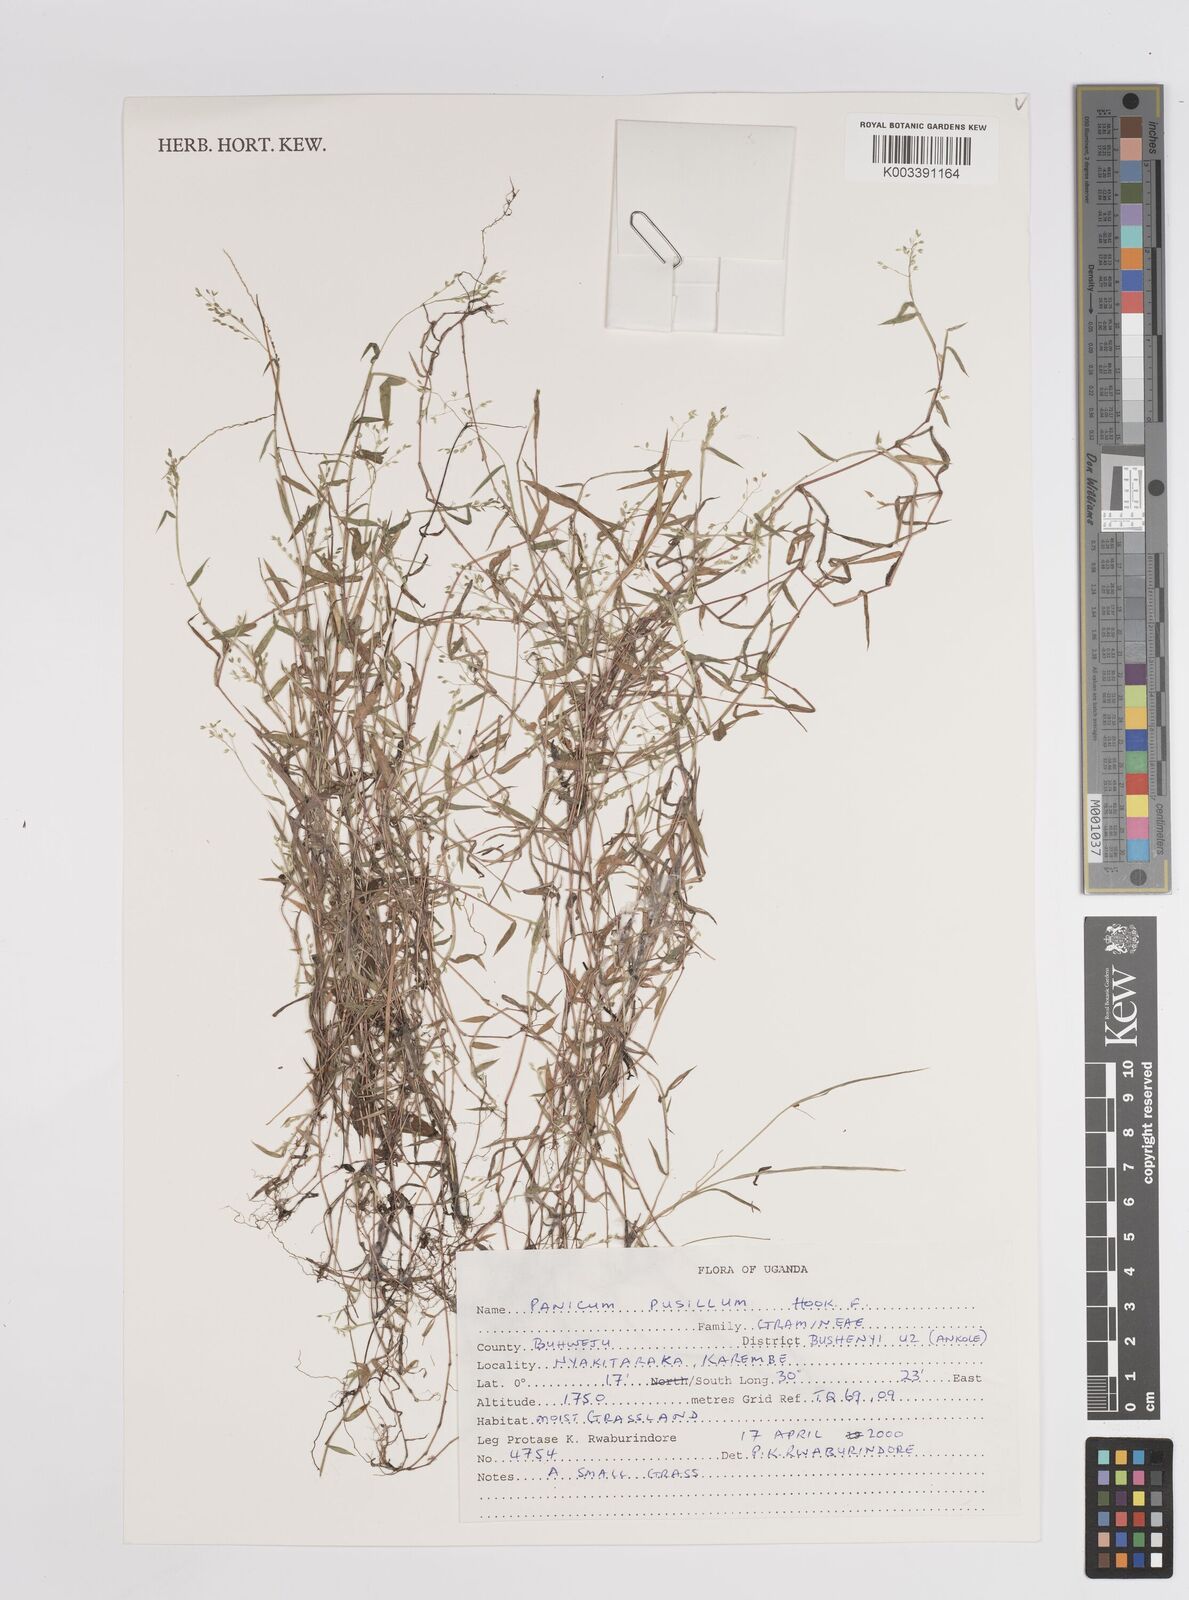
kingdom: Plantae
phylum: Tracheophyta
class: Liliopsida
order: Poales
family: Poaceae
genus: Panicum
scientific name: Panicum pusillum
